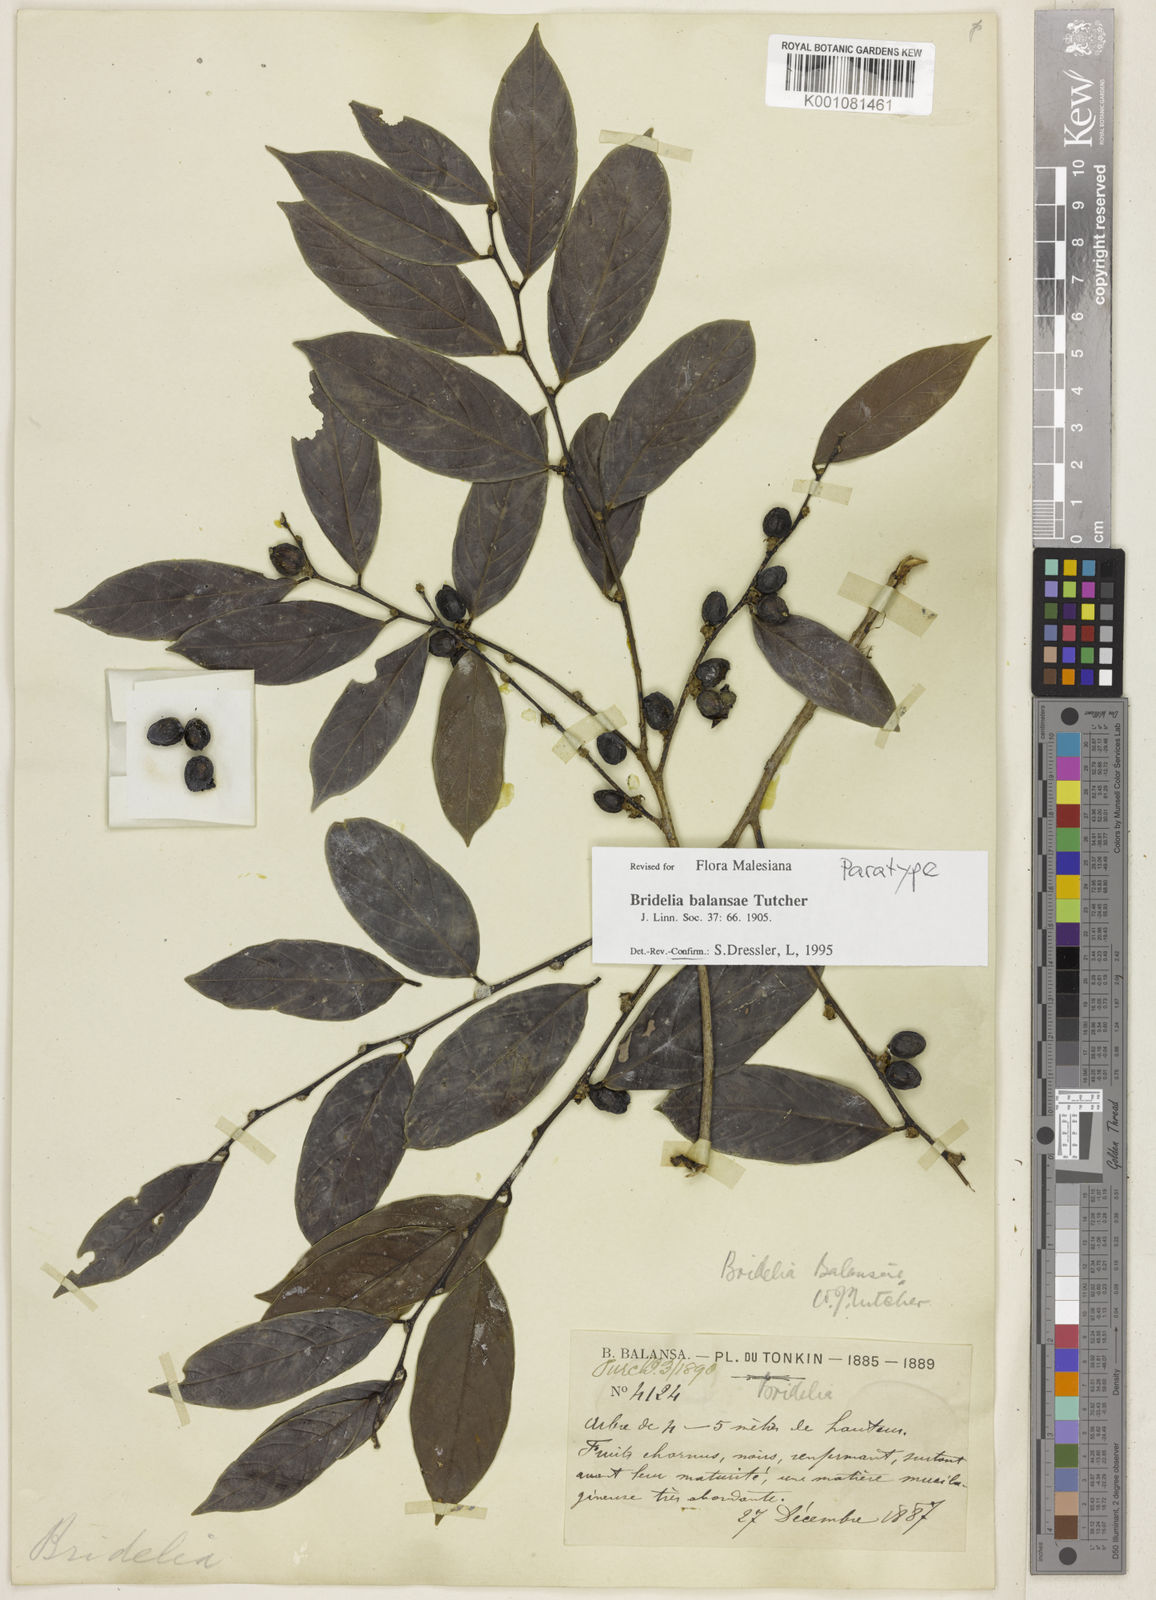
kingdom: Plantae
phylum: Tracheophyta
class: Magnoliopsida
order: Malpighiales
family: Phyllanthaceae
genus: Bridelia
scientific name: Bridelia balansae
